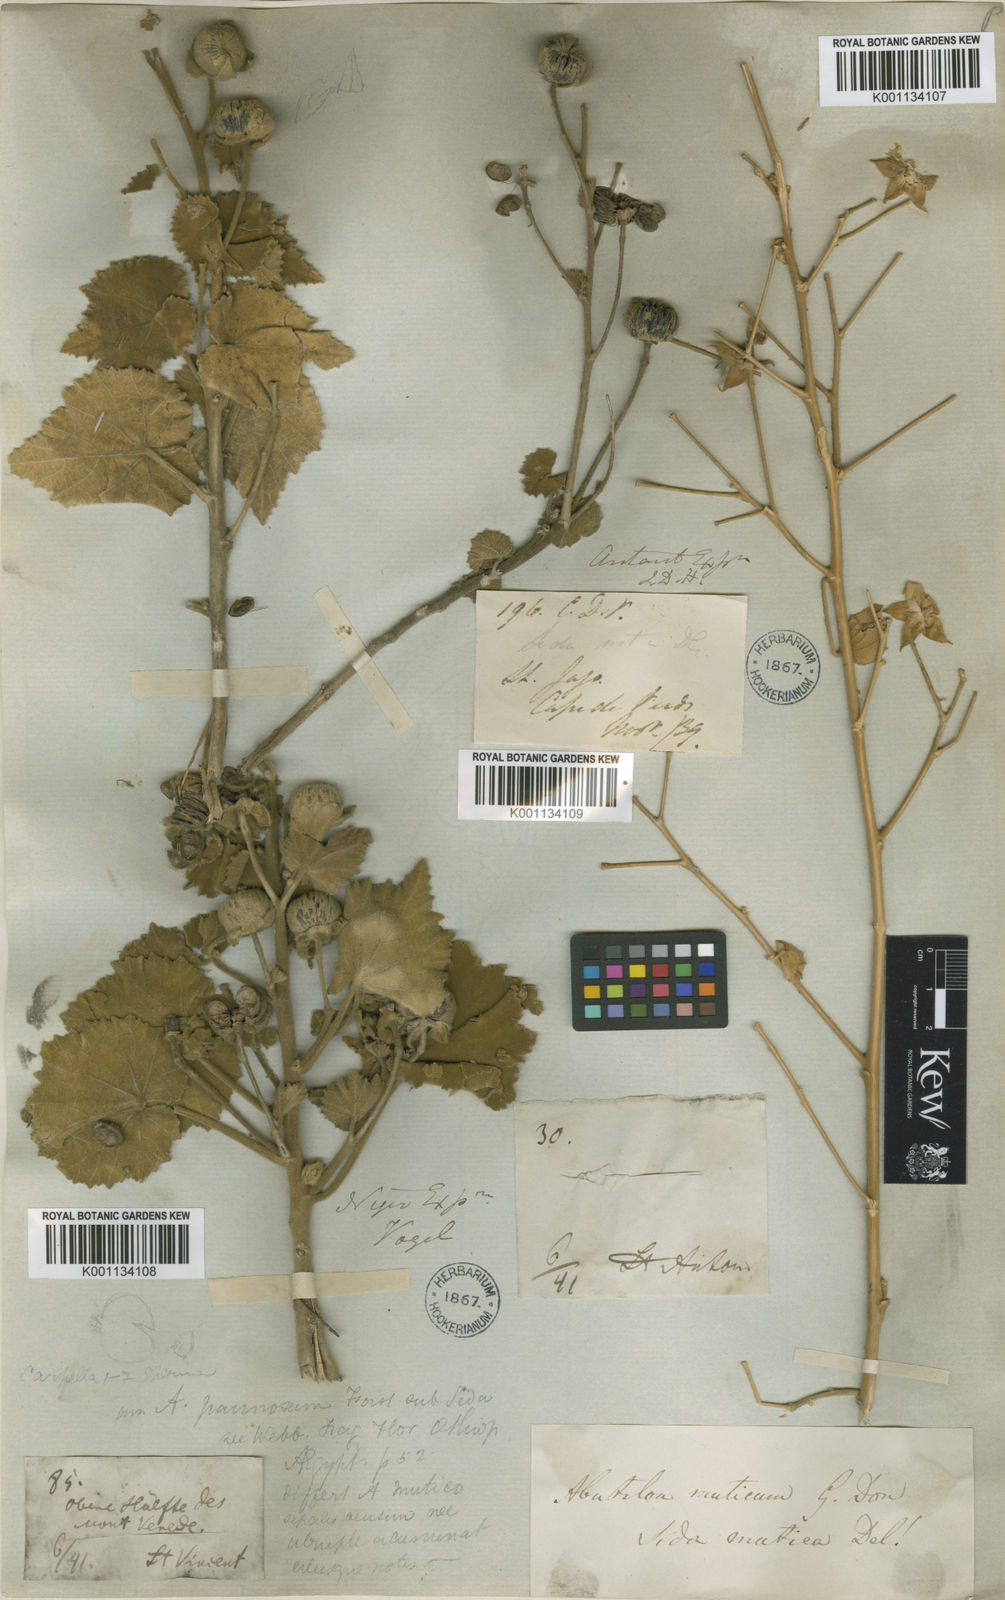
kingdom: Plantae
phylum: Tracheophyta
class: Magnoliopsida
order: Malvales
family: Malvaceae
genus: Abutilon
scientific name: Abutilon pannosum
